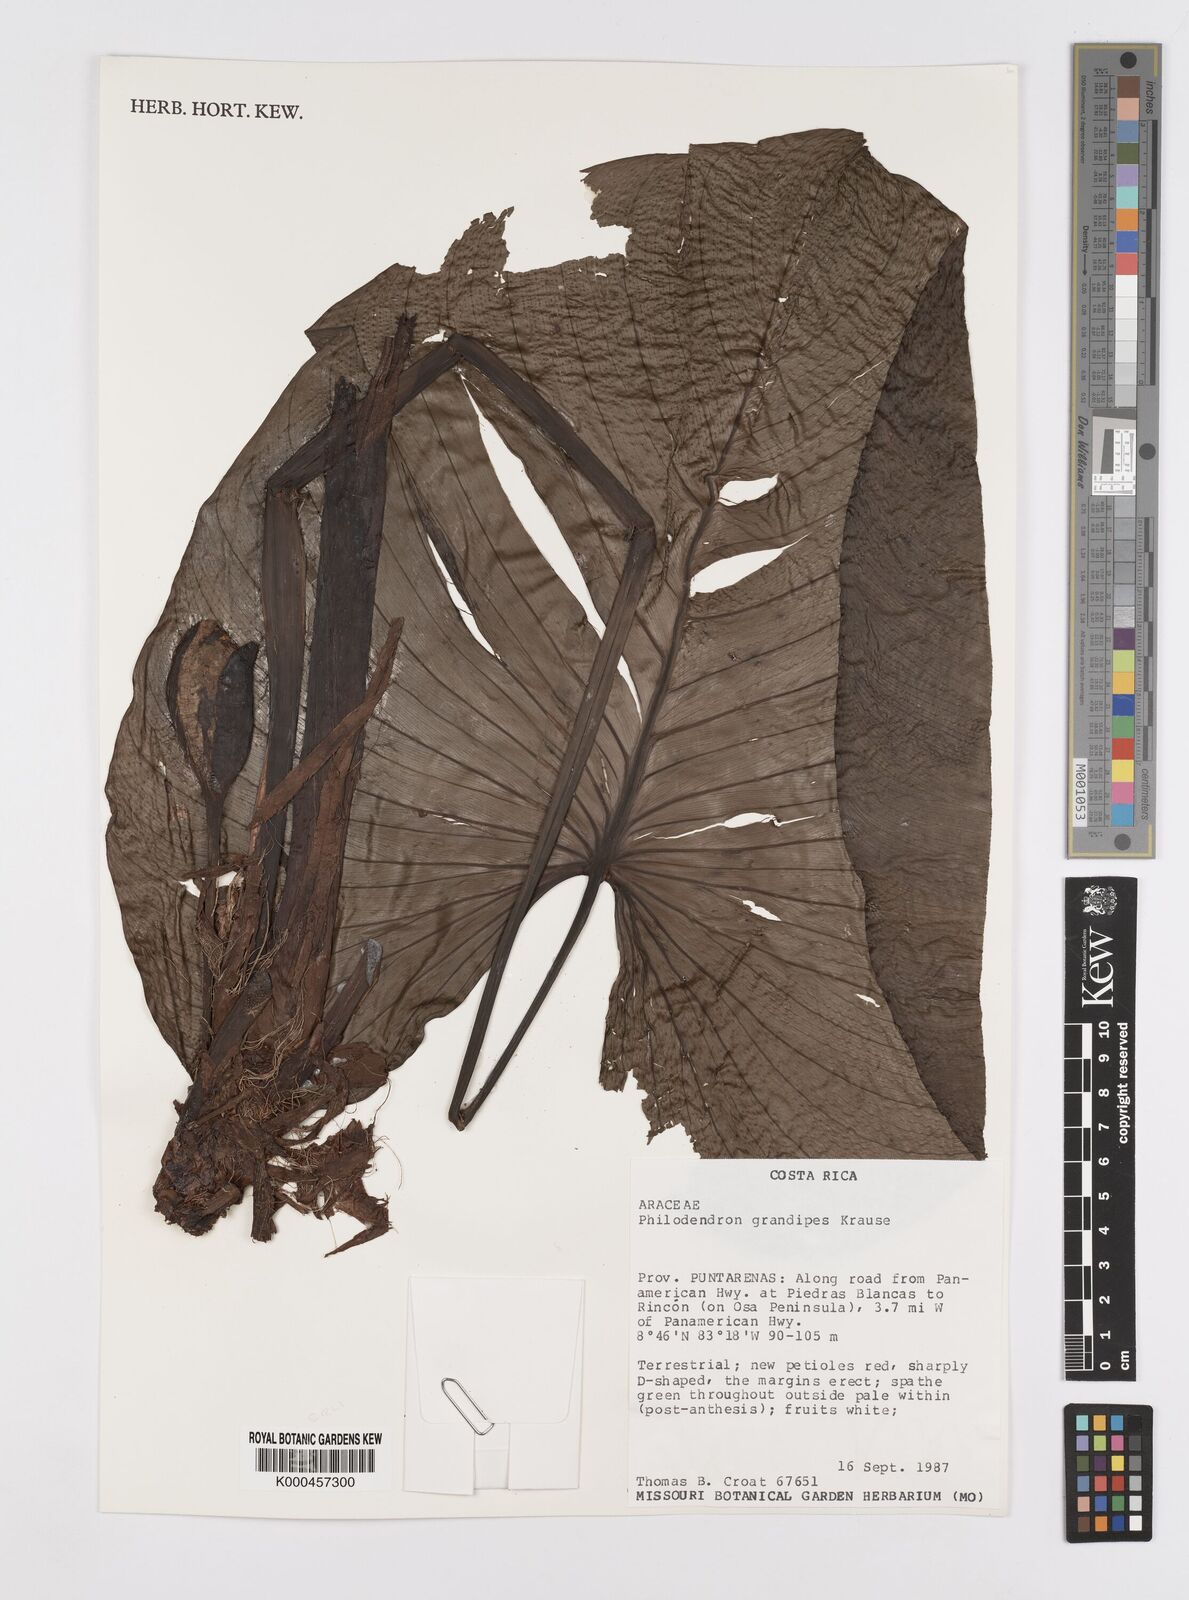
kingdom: Plantae
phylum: Tracheophyta
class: Liliopsida
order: Alismatales
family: Araceae
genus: Philodendron
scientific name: Philodendron grandipes
